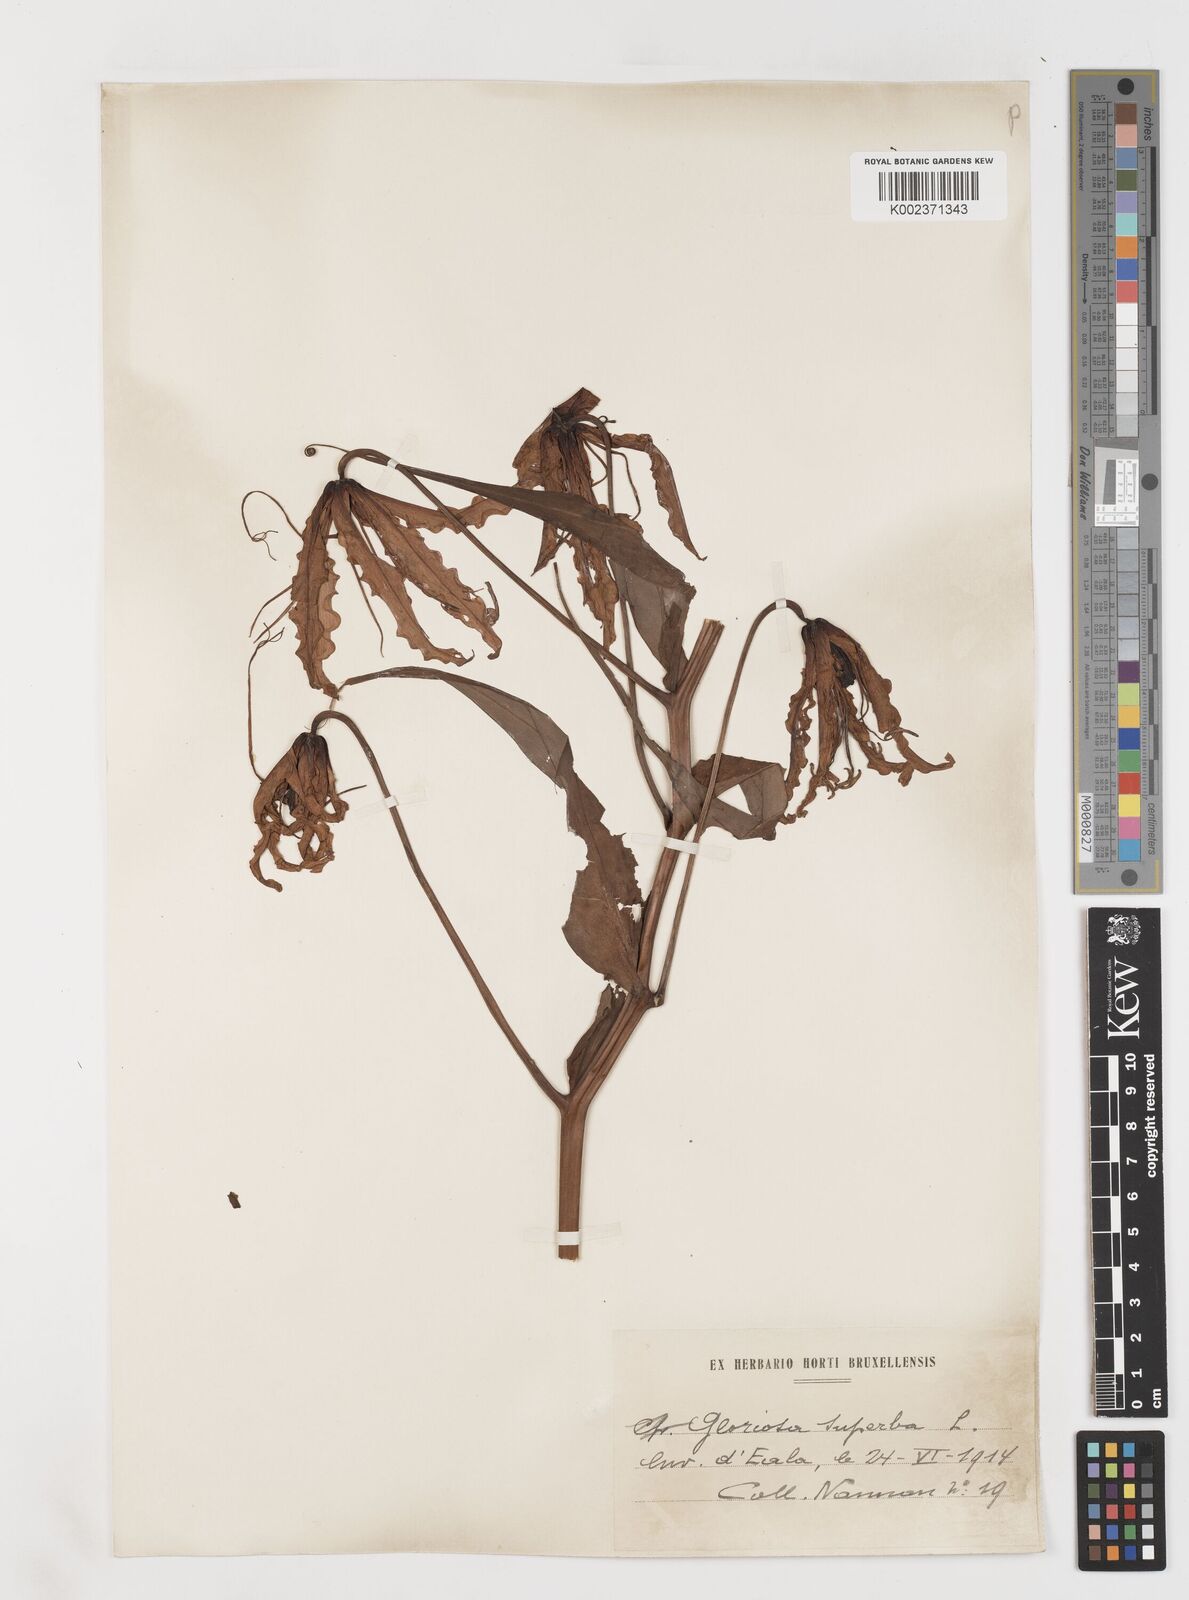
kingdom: Plantae
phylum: Tracheophyta
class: Liliopsida
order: Liliales
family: Colchicaceae
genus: Gloriosa
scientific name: Gloriosa superba
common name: Flame lily
